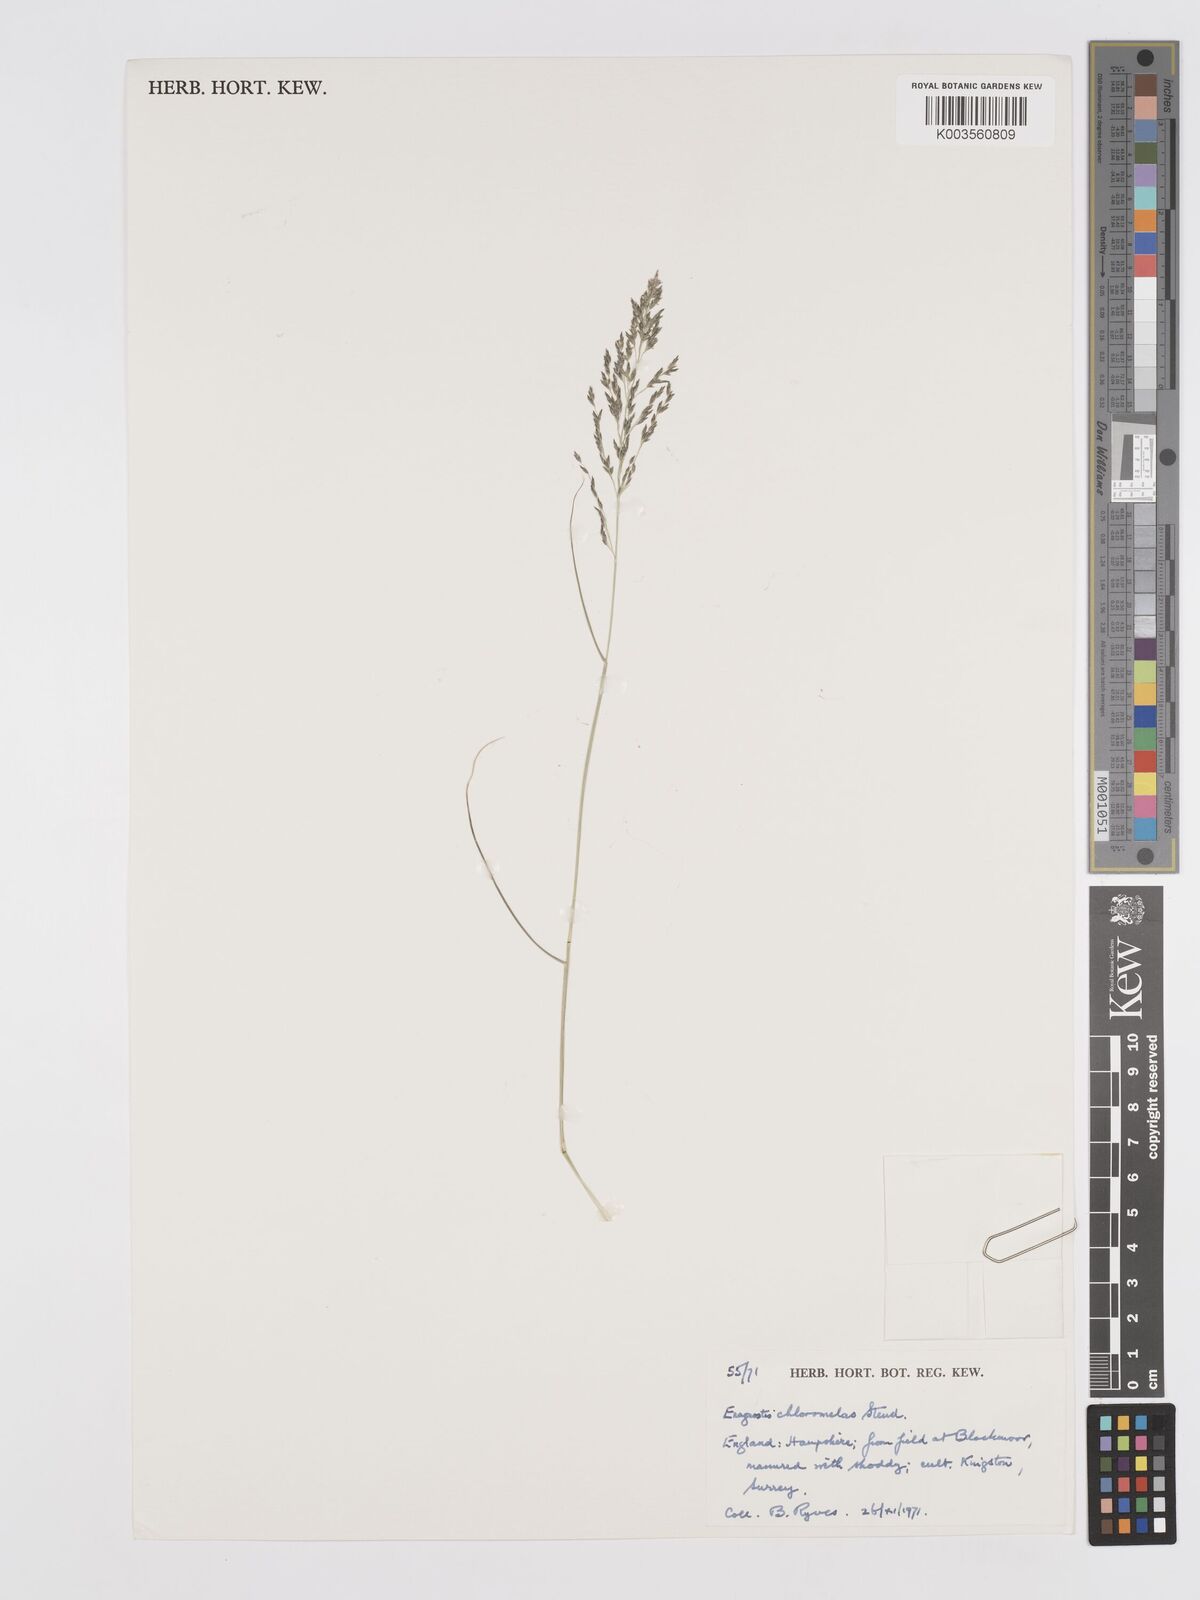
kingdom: Plantae
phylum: Tracheophyta
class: Liliopsida
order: Poales
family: Poaceae
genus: Eragrostis
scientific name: Eragrostis curvula
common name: African love-grass
